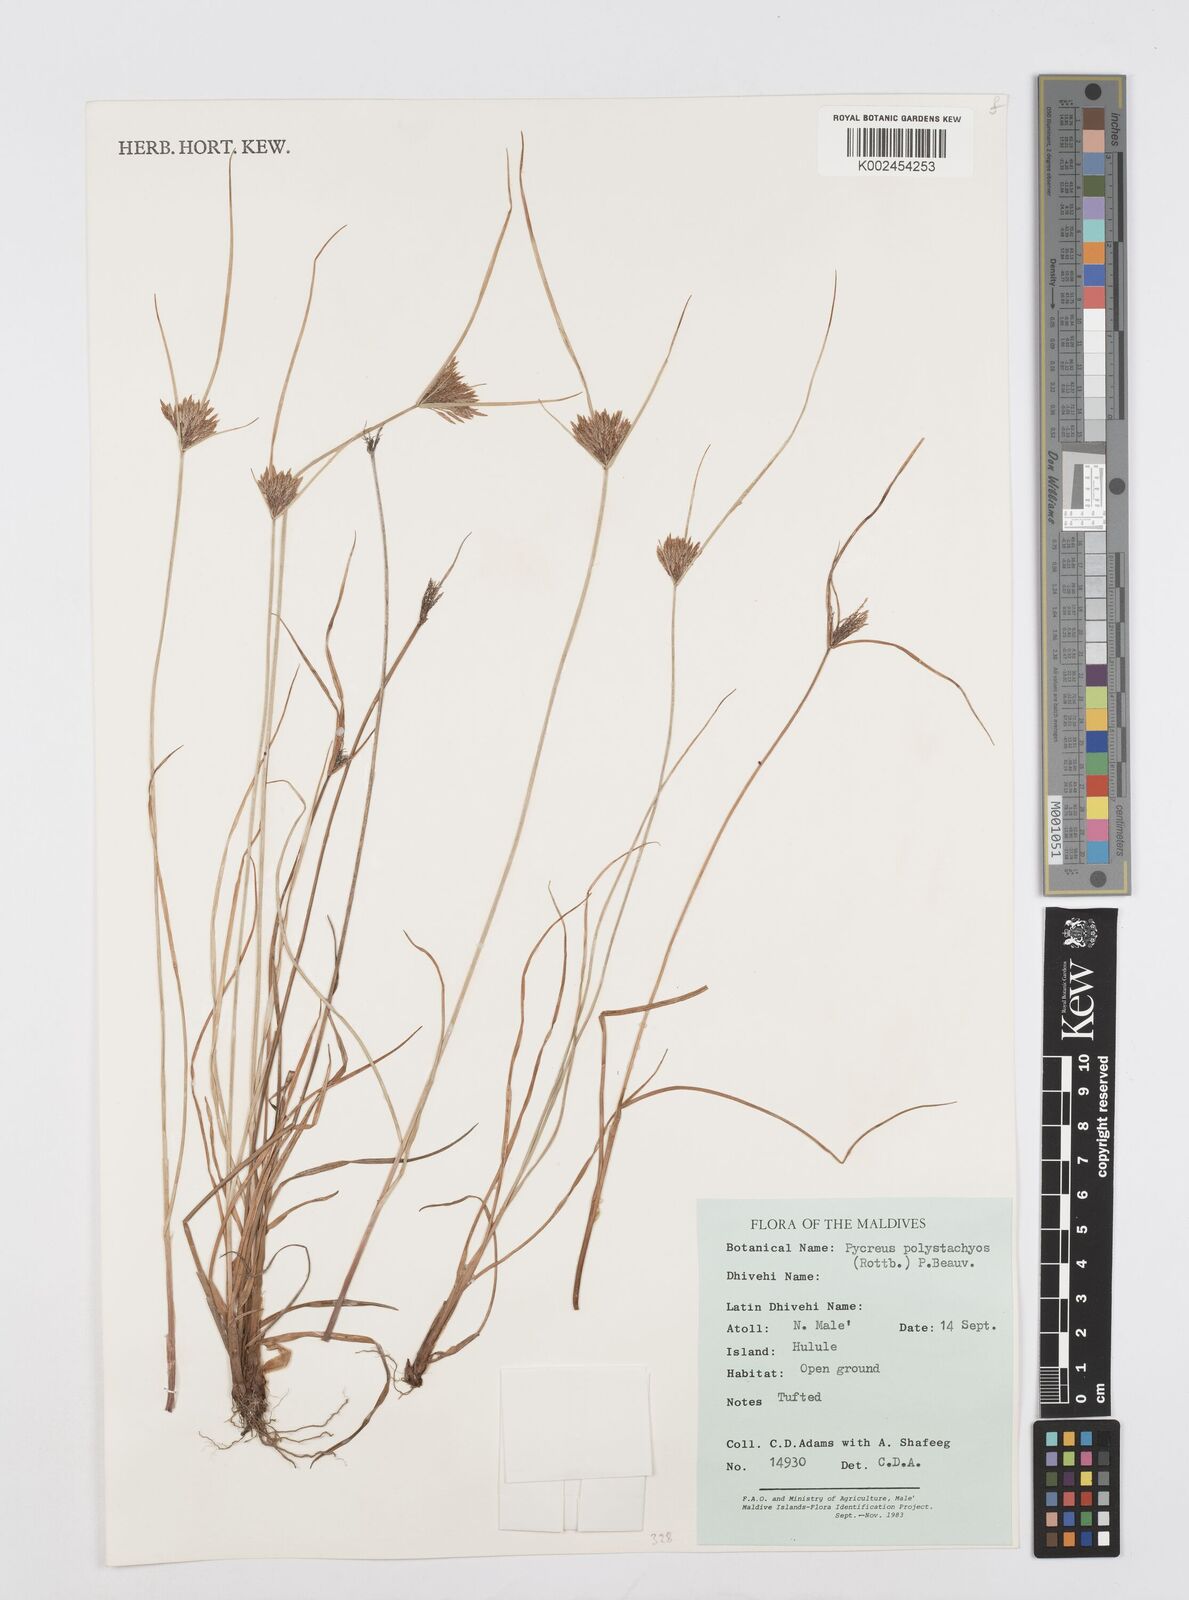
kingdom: Plantae
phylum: Tracheophyta
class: Liliopsida
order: Poales
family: Cyperaceae
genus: Cyperus
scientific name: Cyperus polystachyos
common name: Bunchy flat sedge
